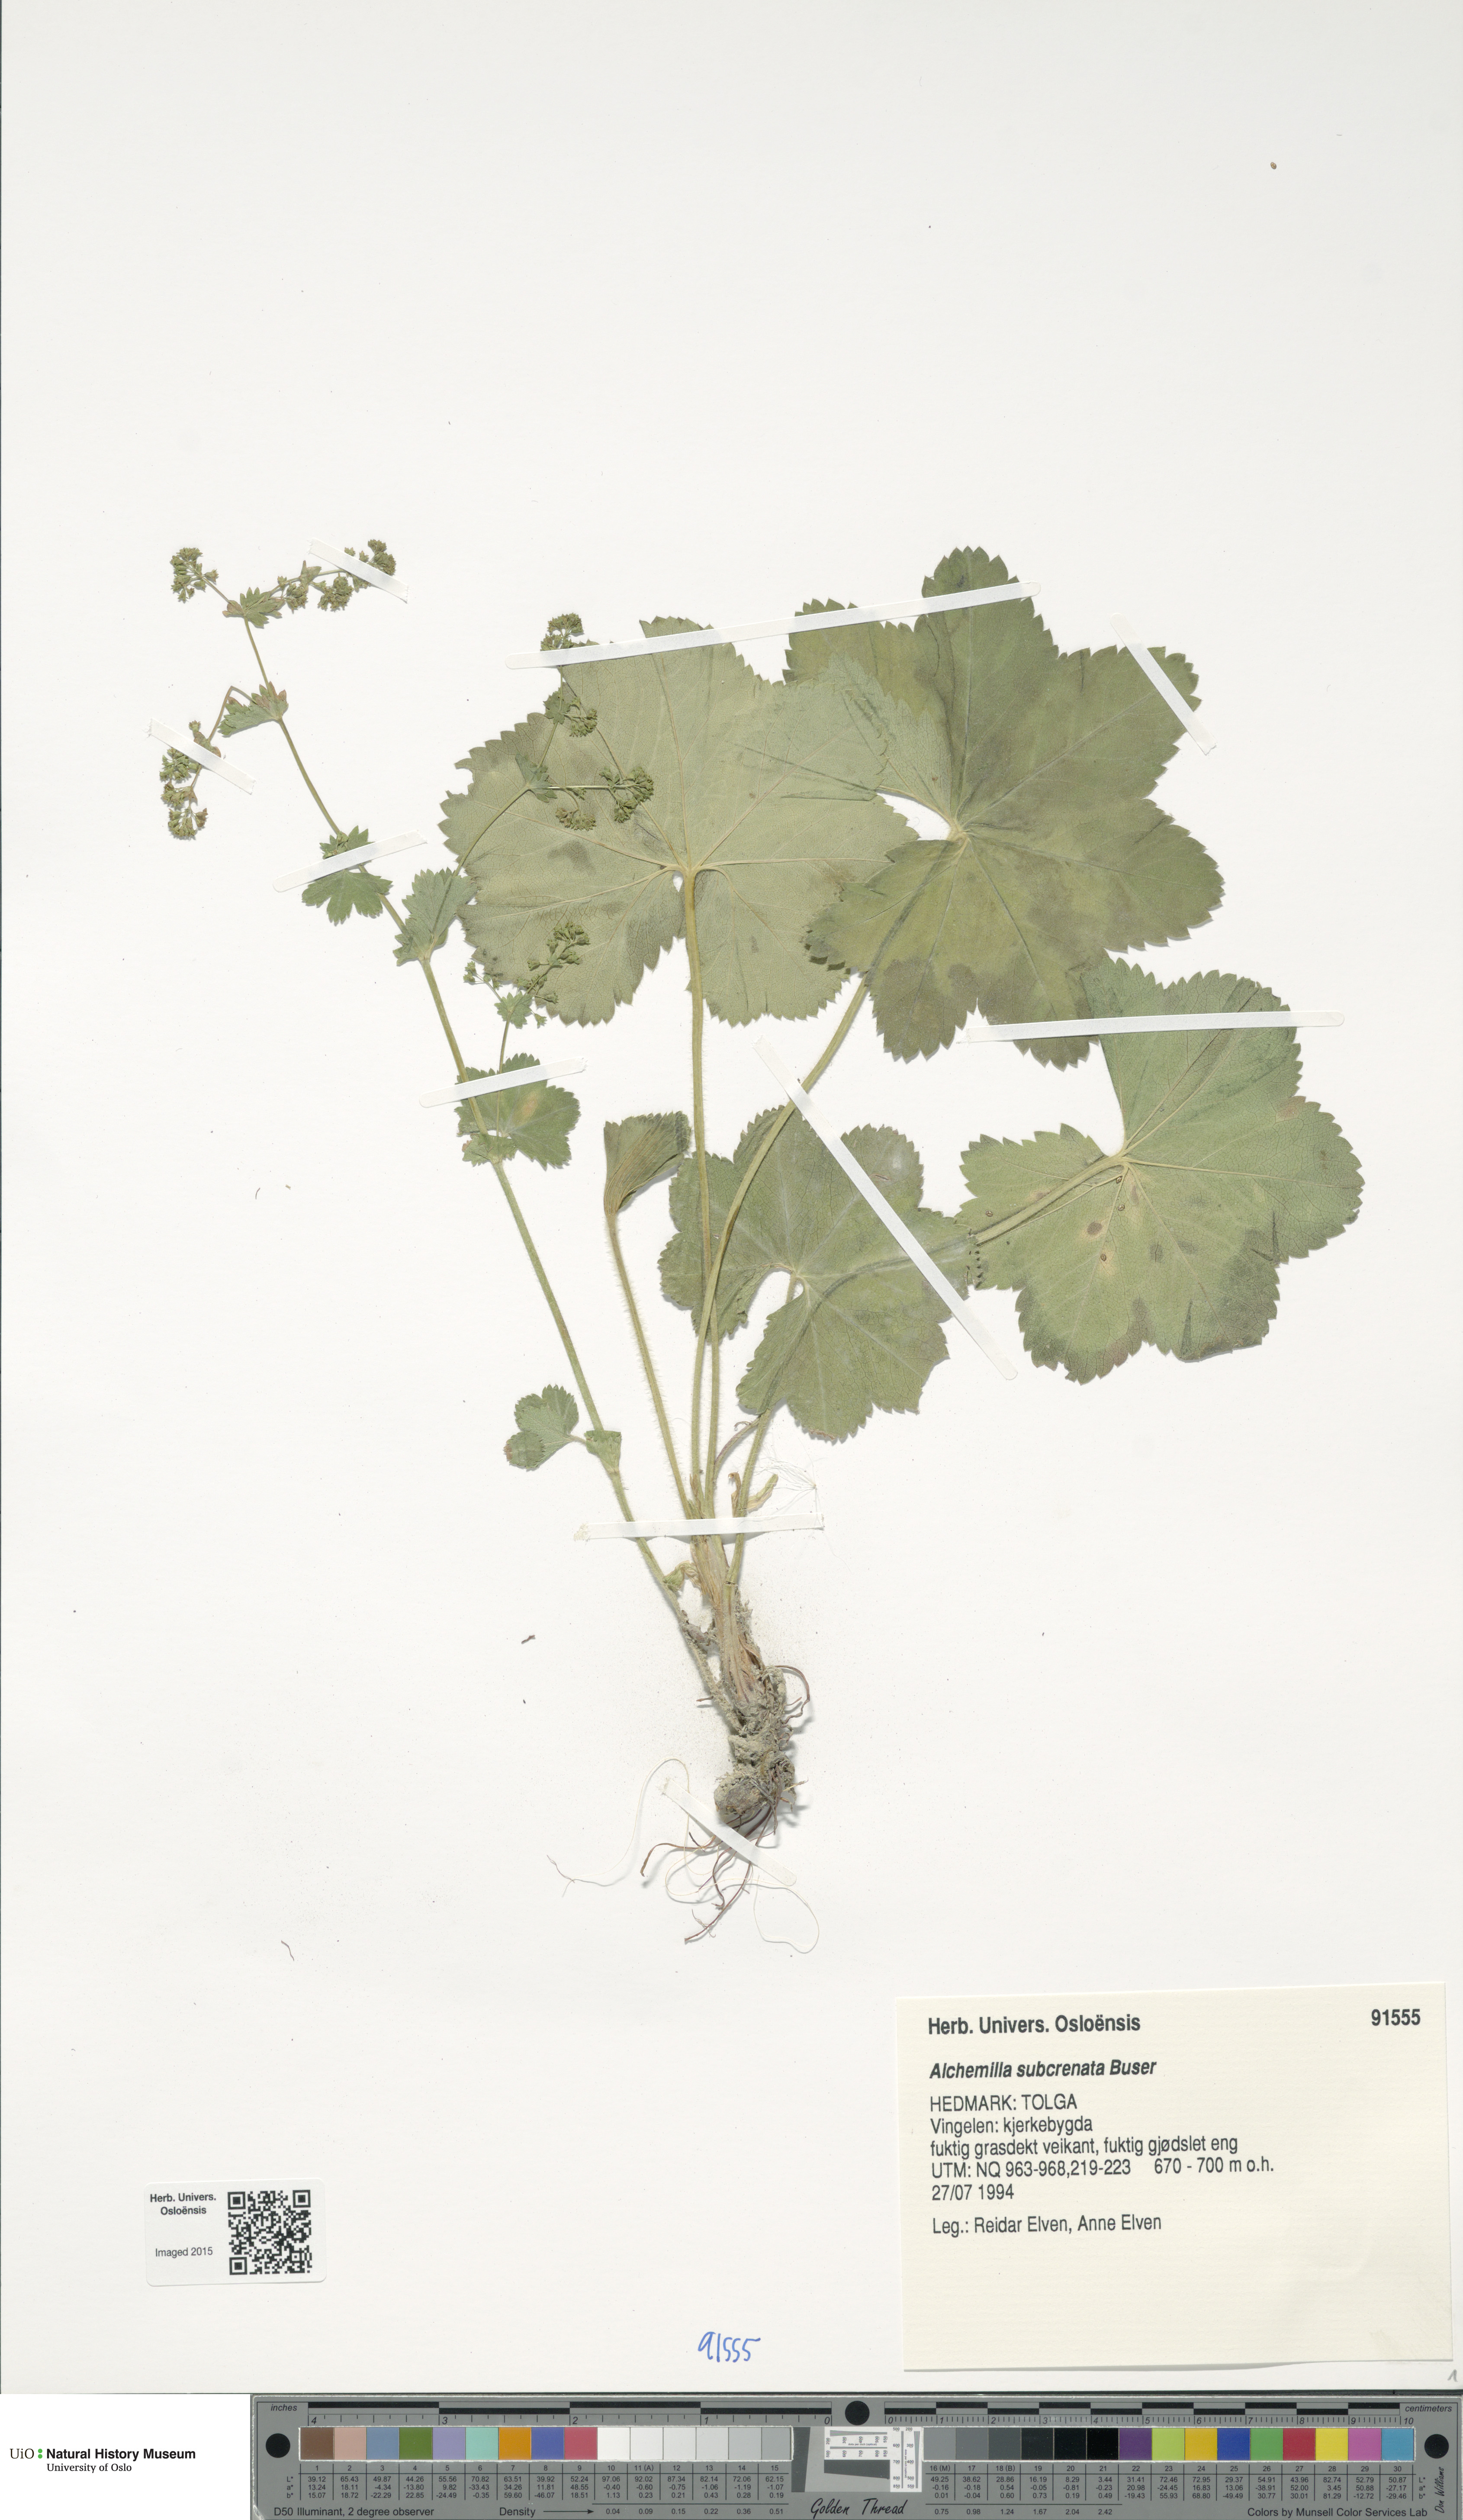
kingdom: Plantae
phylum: Tracheophyta
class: Magnoliopsida
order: Rosales
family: Rosaceae
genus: Alchemilla
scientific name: Alchemilla subcrenata
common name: Broadtooth lady's mantle
